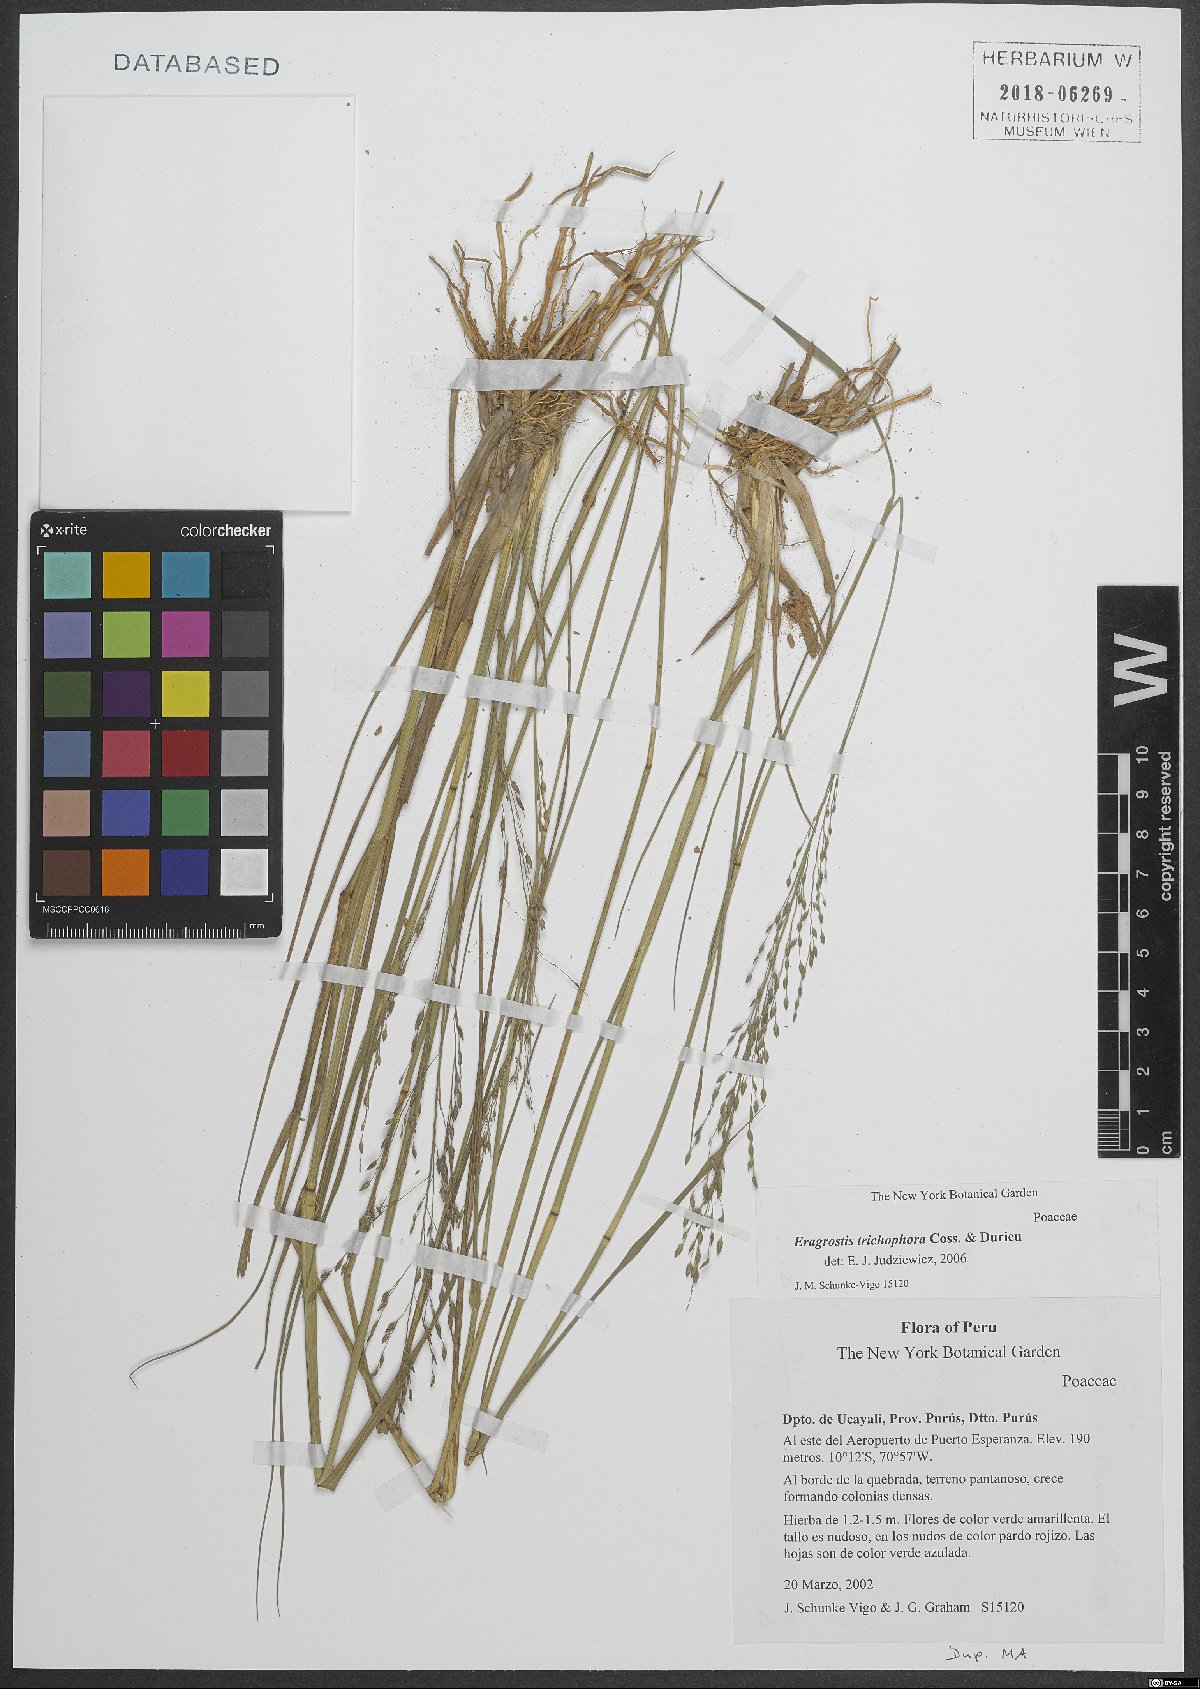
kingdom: Plantae
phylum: Tracheophyta
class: Liliopsida
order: Poales
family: Poaceae
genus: Eragrostis
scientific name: Eragrostis cylindriflora
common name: Cylinderflower lovegrass
